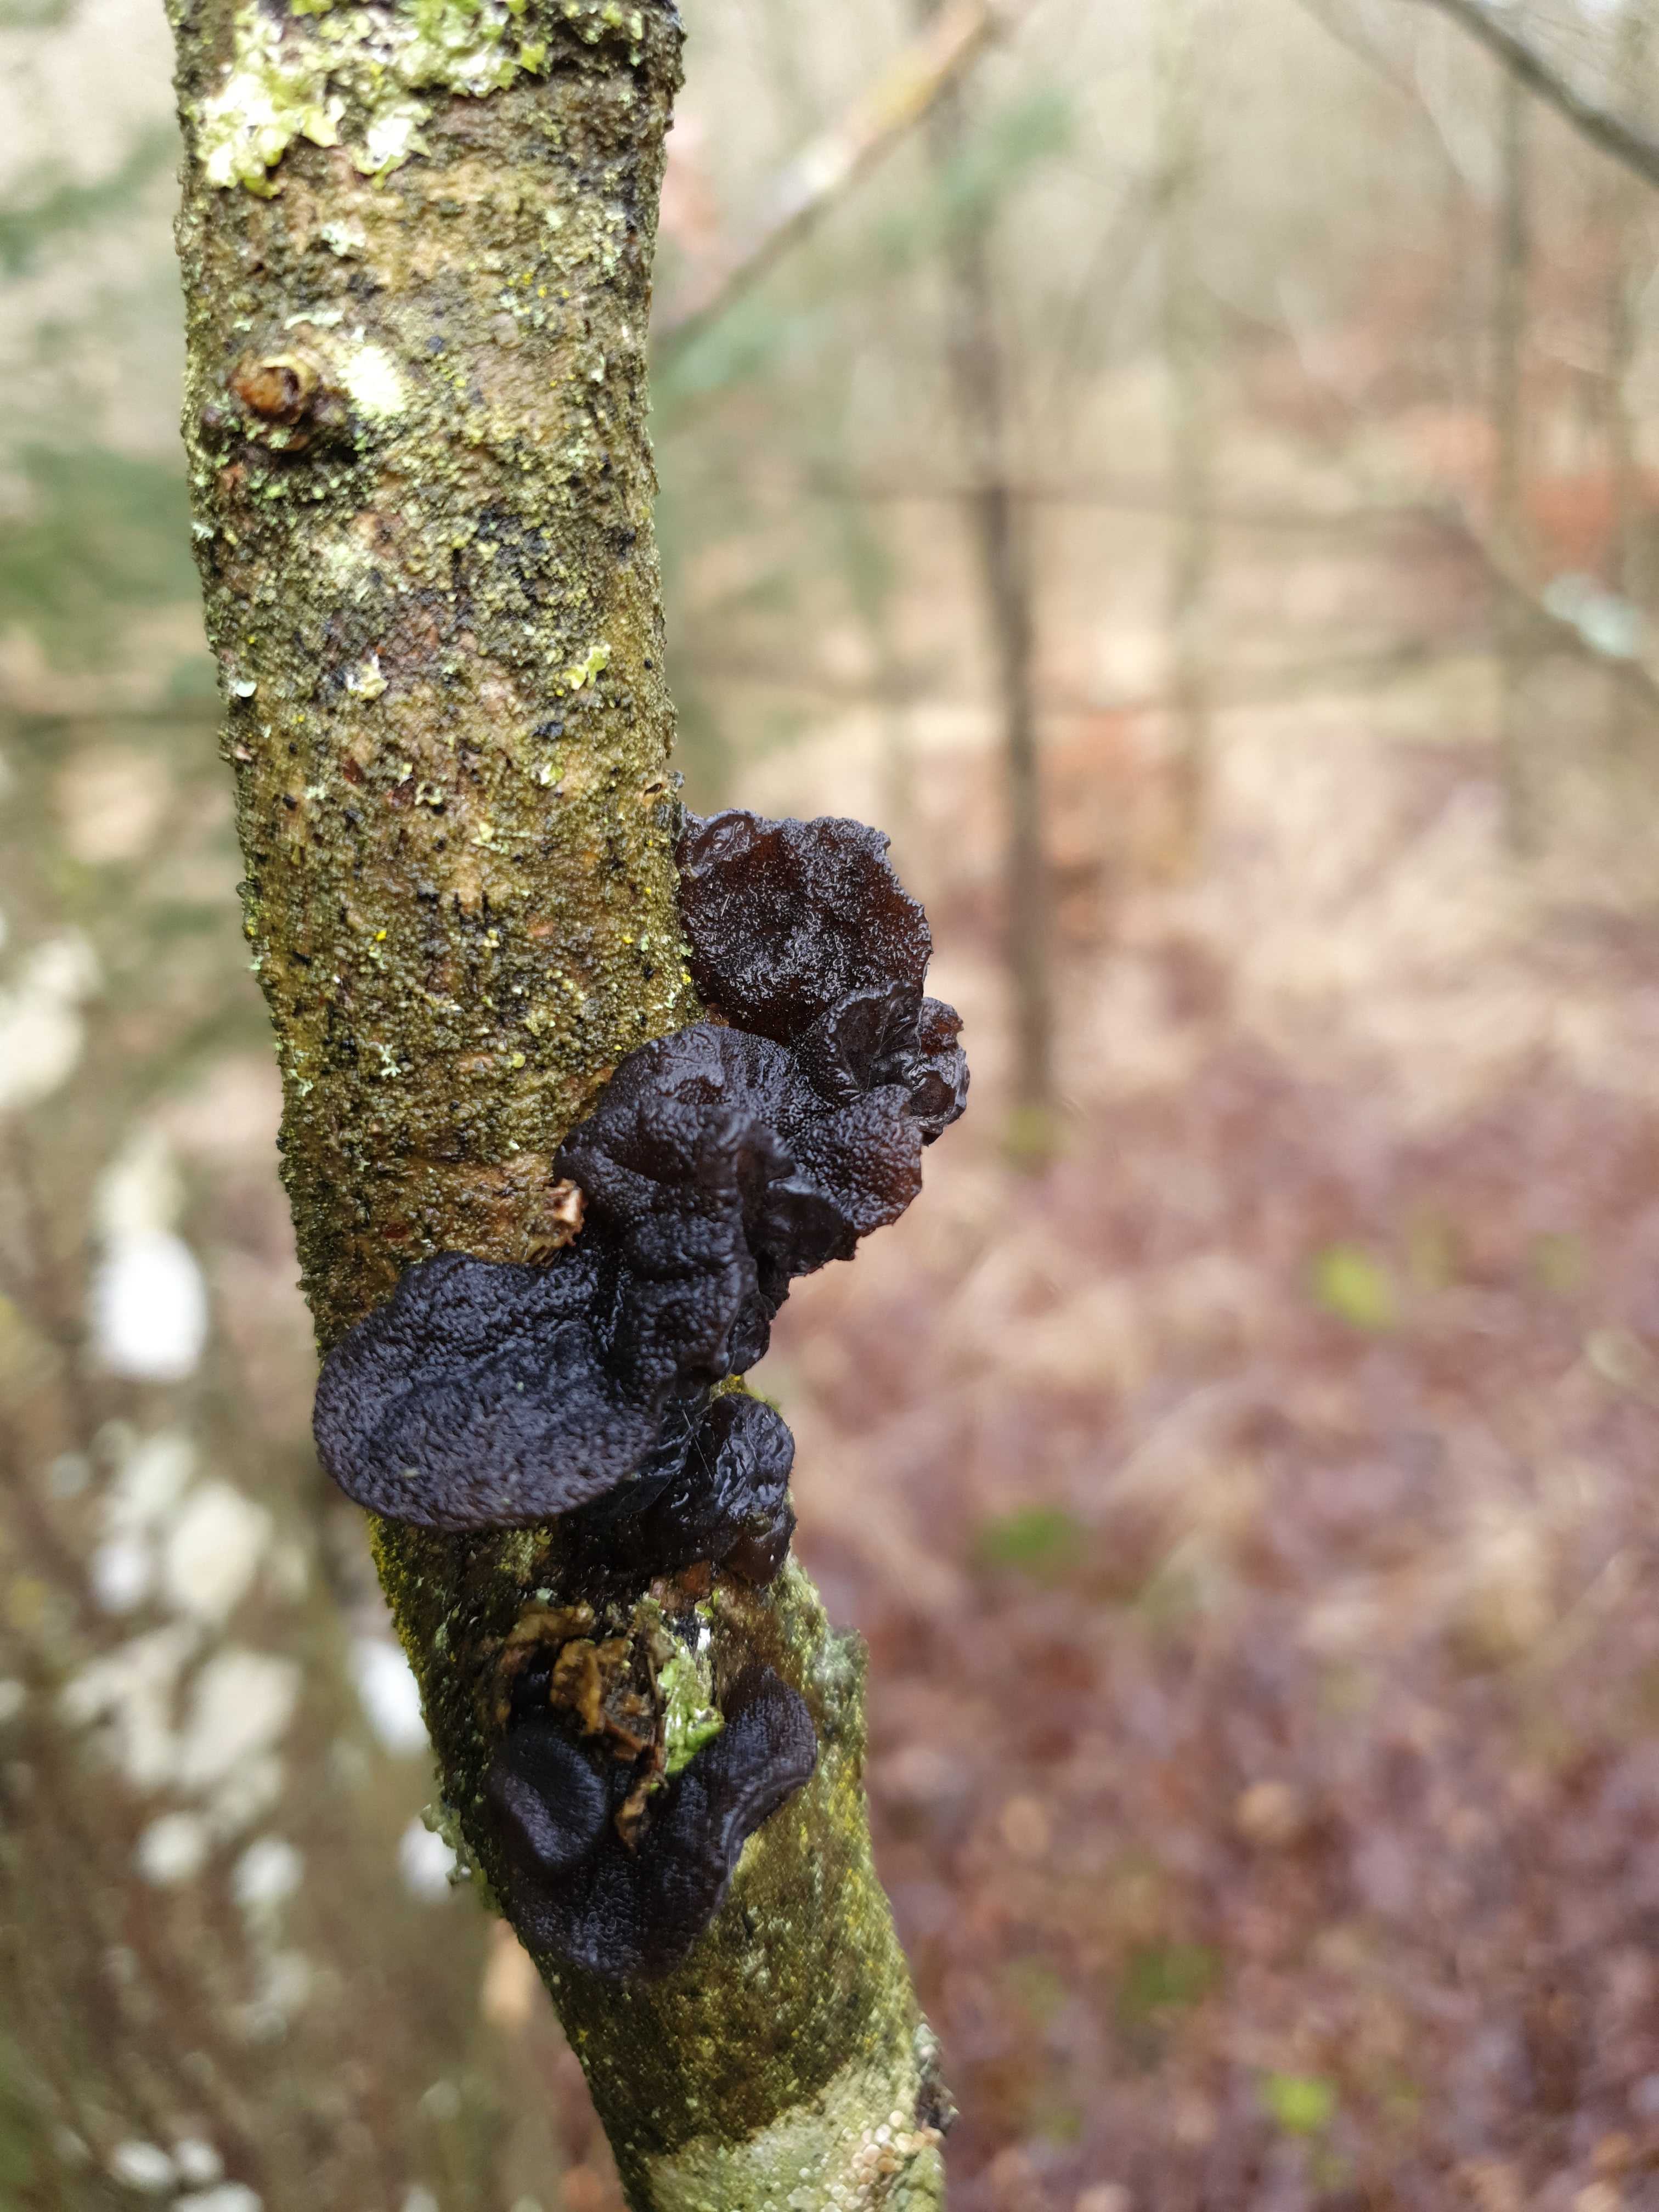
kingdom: Fungi
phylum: Basidiomycota
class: Agaricomycetes
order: Auriculariales
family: Auriculariaceae
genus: Exidia
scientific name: Exidia glandulosa
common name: ege-bævretop
